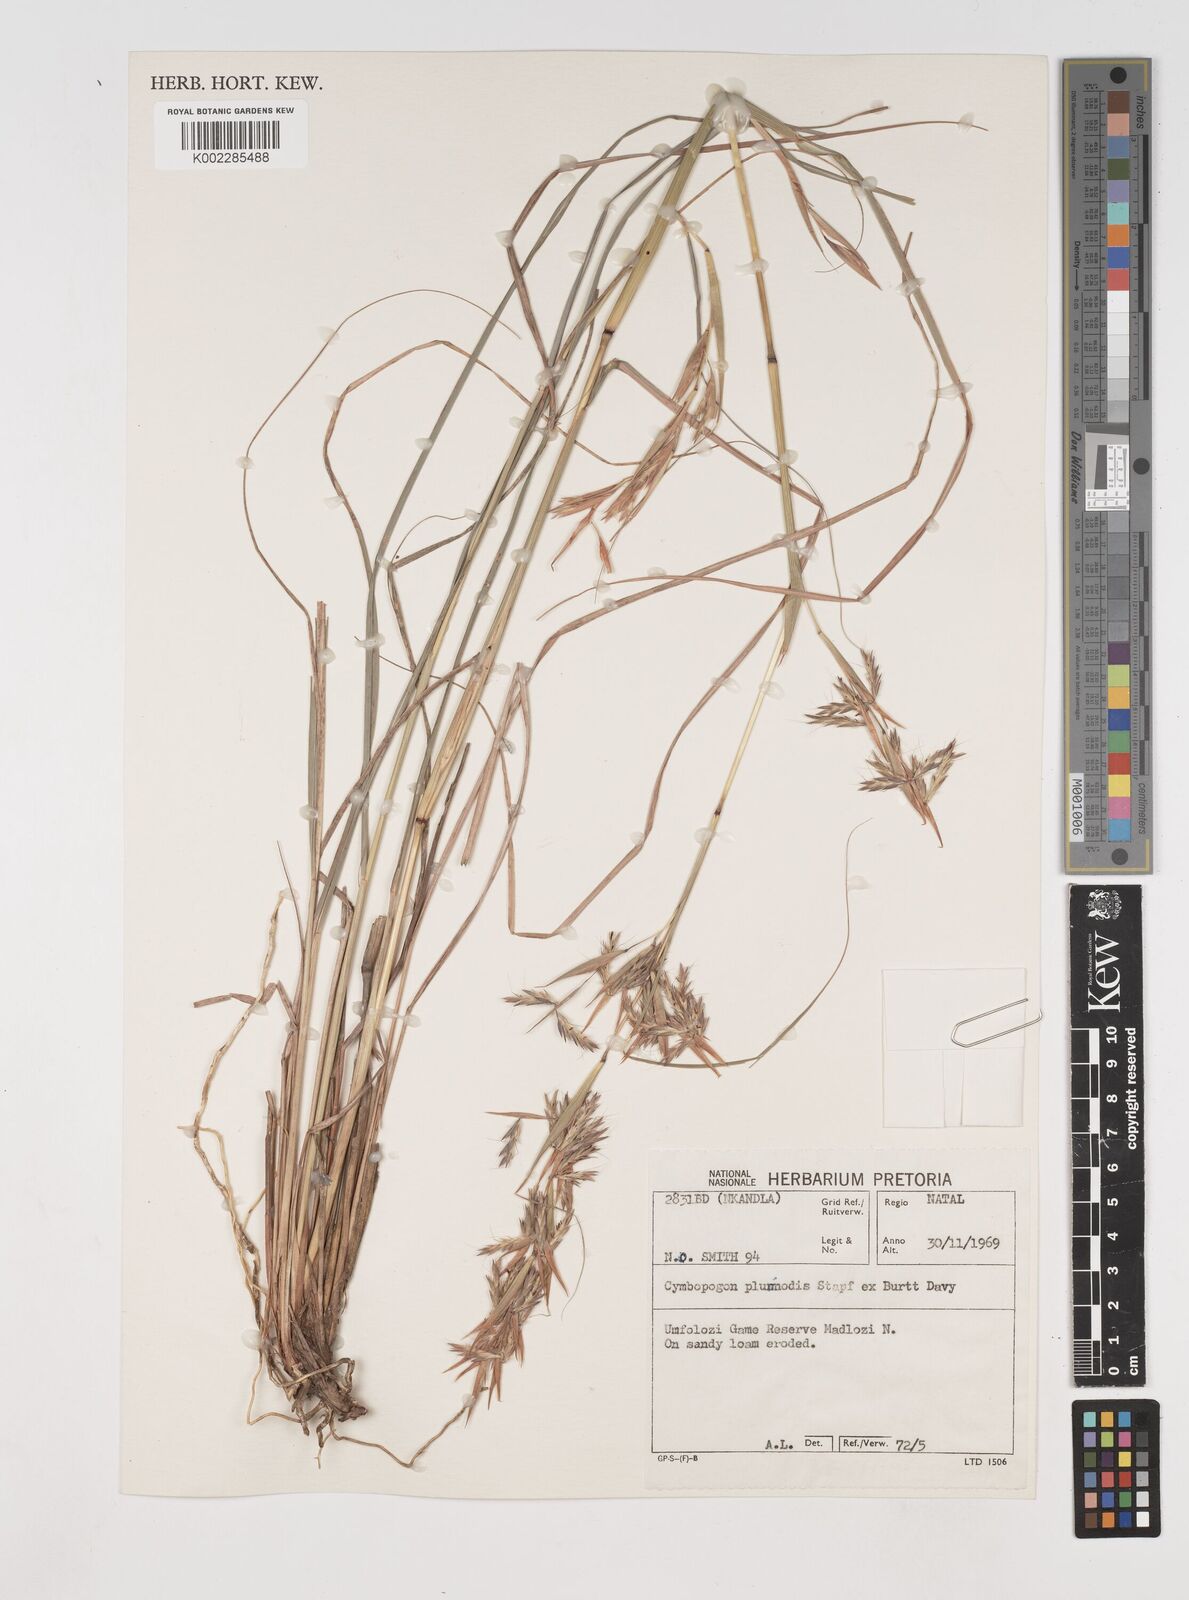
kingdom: Plantae
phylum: Tracheophyta
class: Liliopsida
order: Poales
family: Poaceae
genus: Cymbopogon
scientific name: Cymbopogon pospischilii
